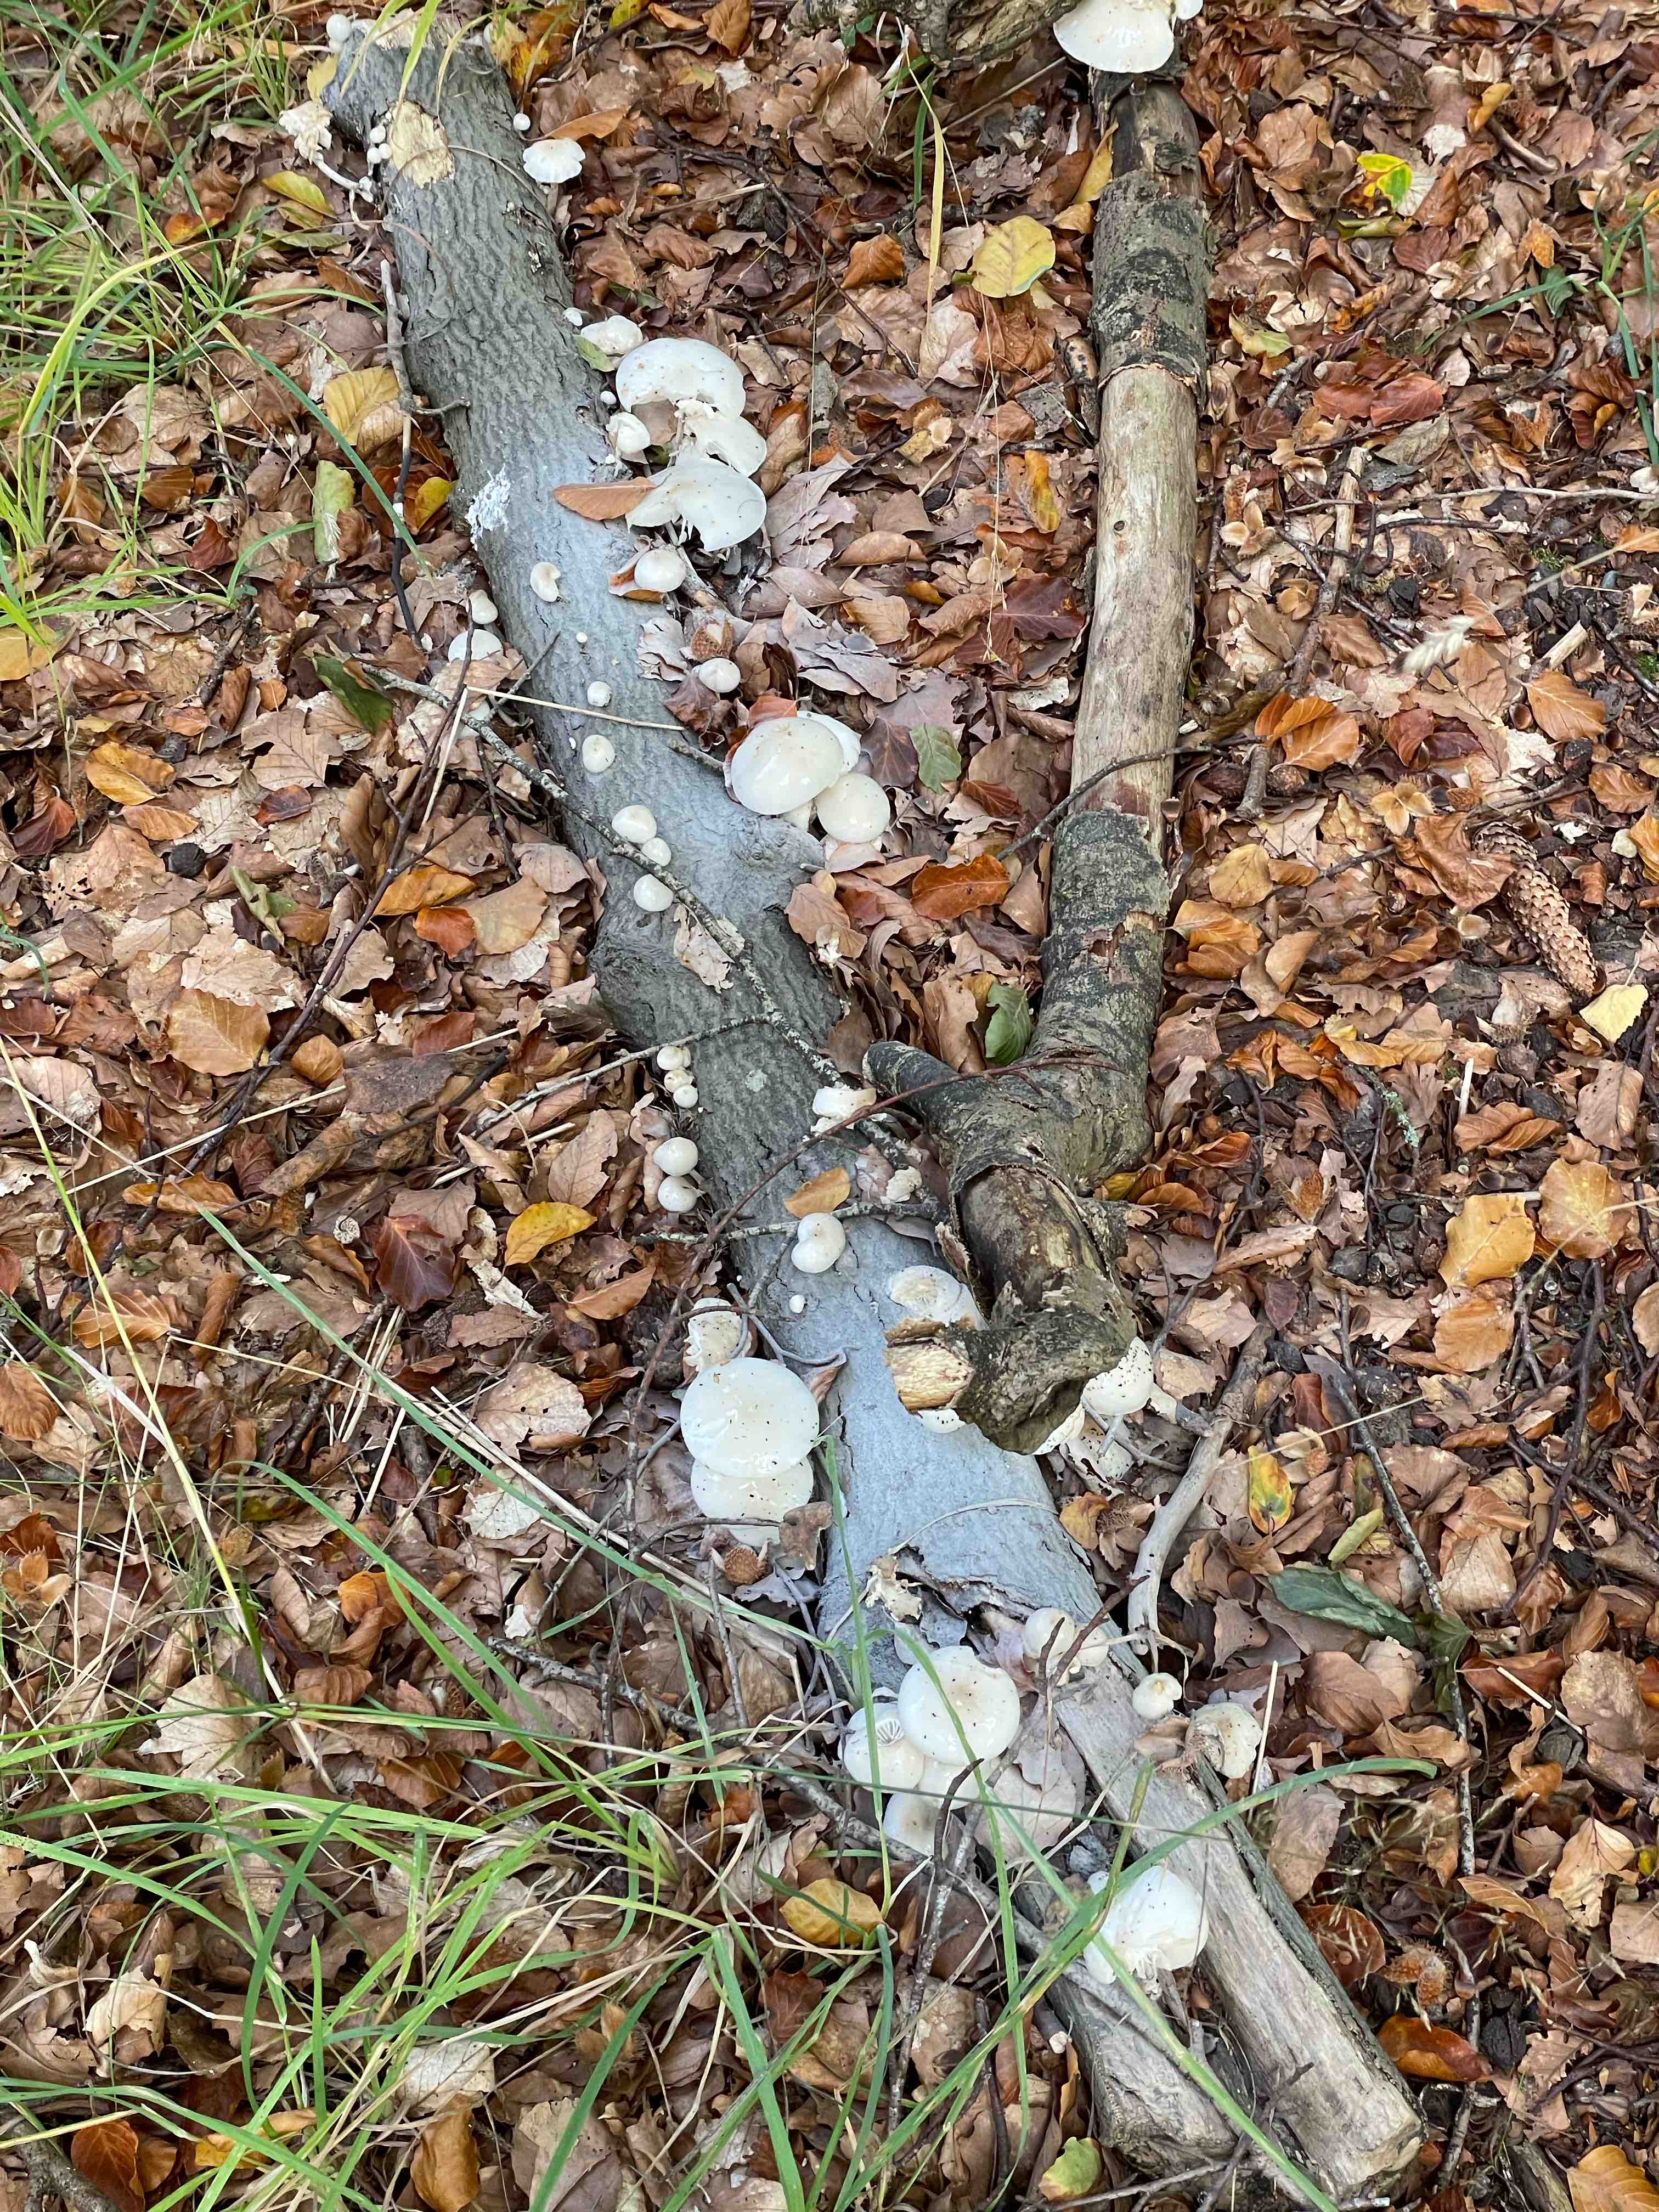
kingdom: Fungi
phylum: Basidiomycota
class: Agaricomycetes
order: Agaricales
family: Physalacriaceae
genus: Mucidula
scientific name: Mucidula mucida
